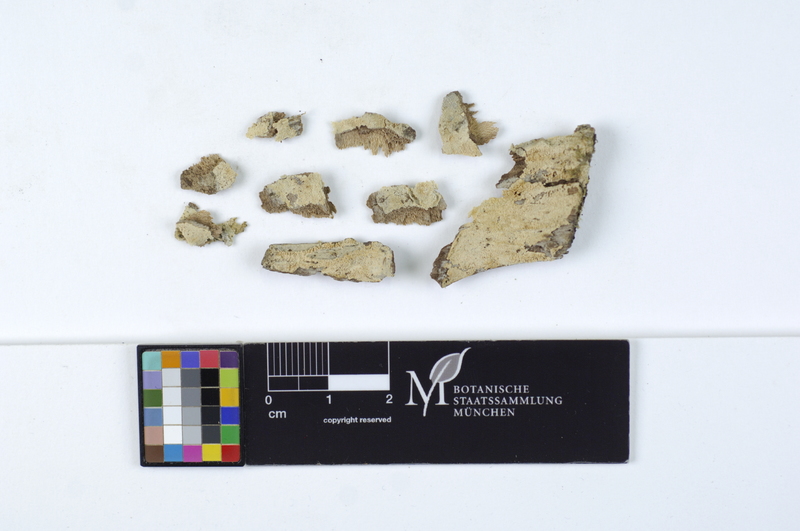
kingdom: Fungi
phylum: Basidiomycota
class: Agaricomycetes
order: Hymenochaetales
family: Schizoporaceae
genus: Fibrodontia
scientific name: Fibrodontia gossypina
